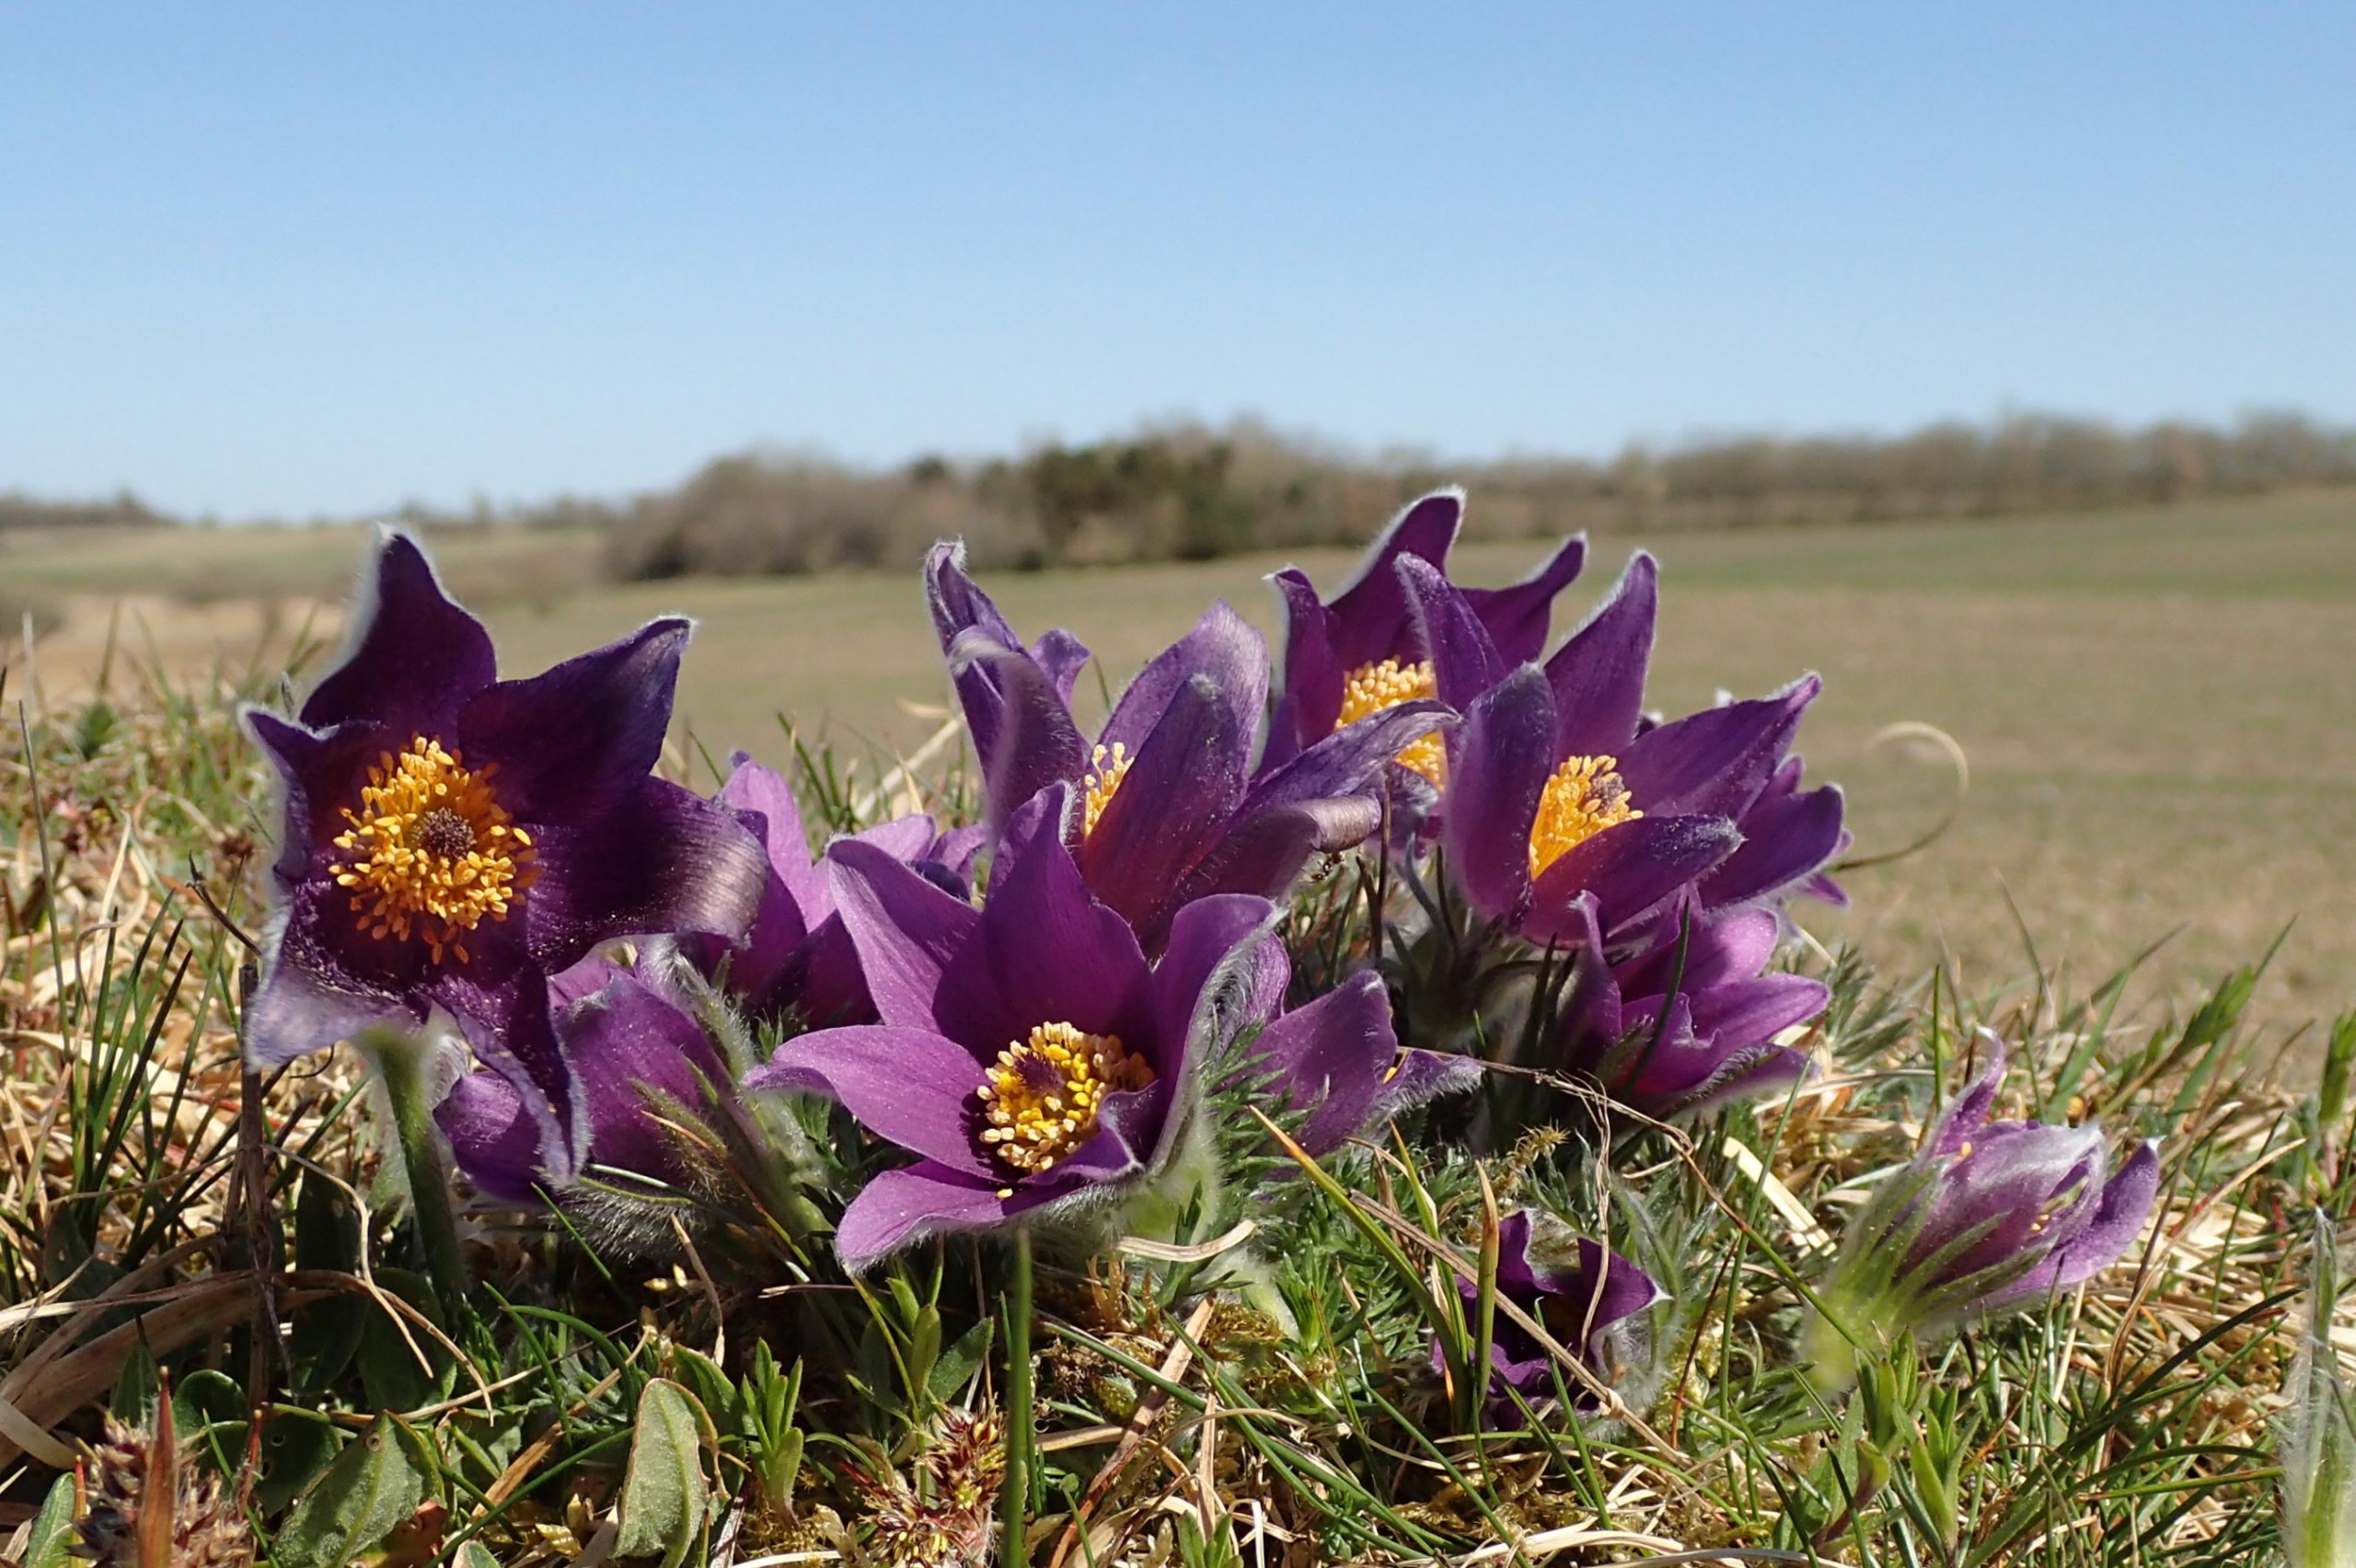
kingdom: Plantae
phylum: Tracheophyta
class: Magnoliopsida
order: Ranunculales
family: Ranunculaceae
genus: Pulsatilla
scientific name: Pulsatilla vulgaris
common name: Opret kobjælde
